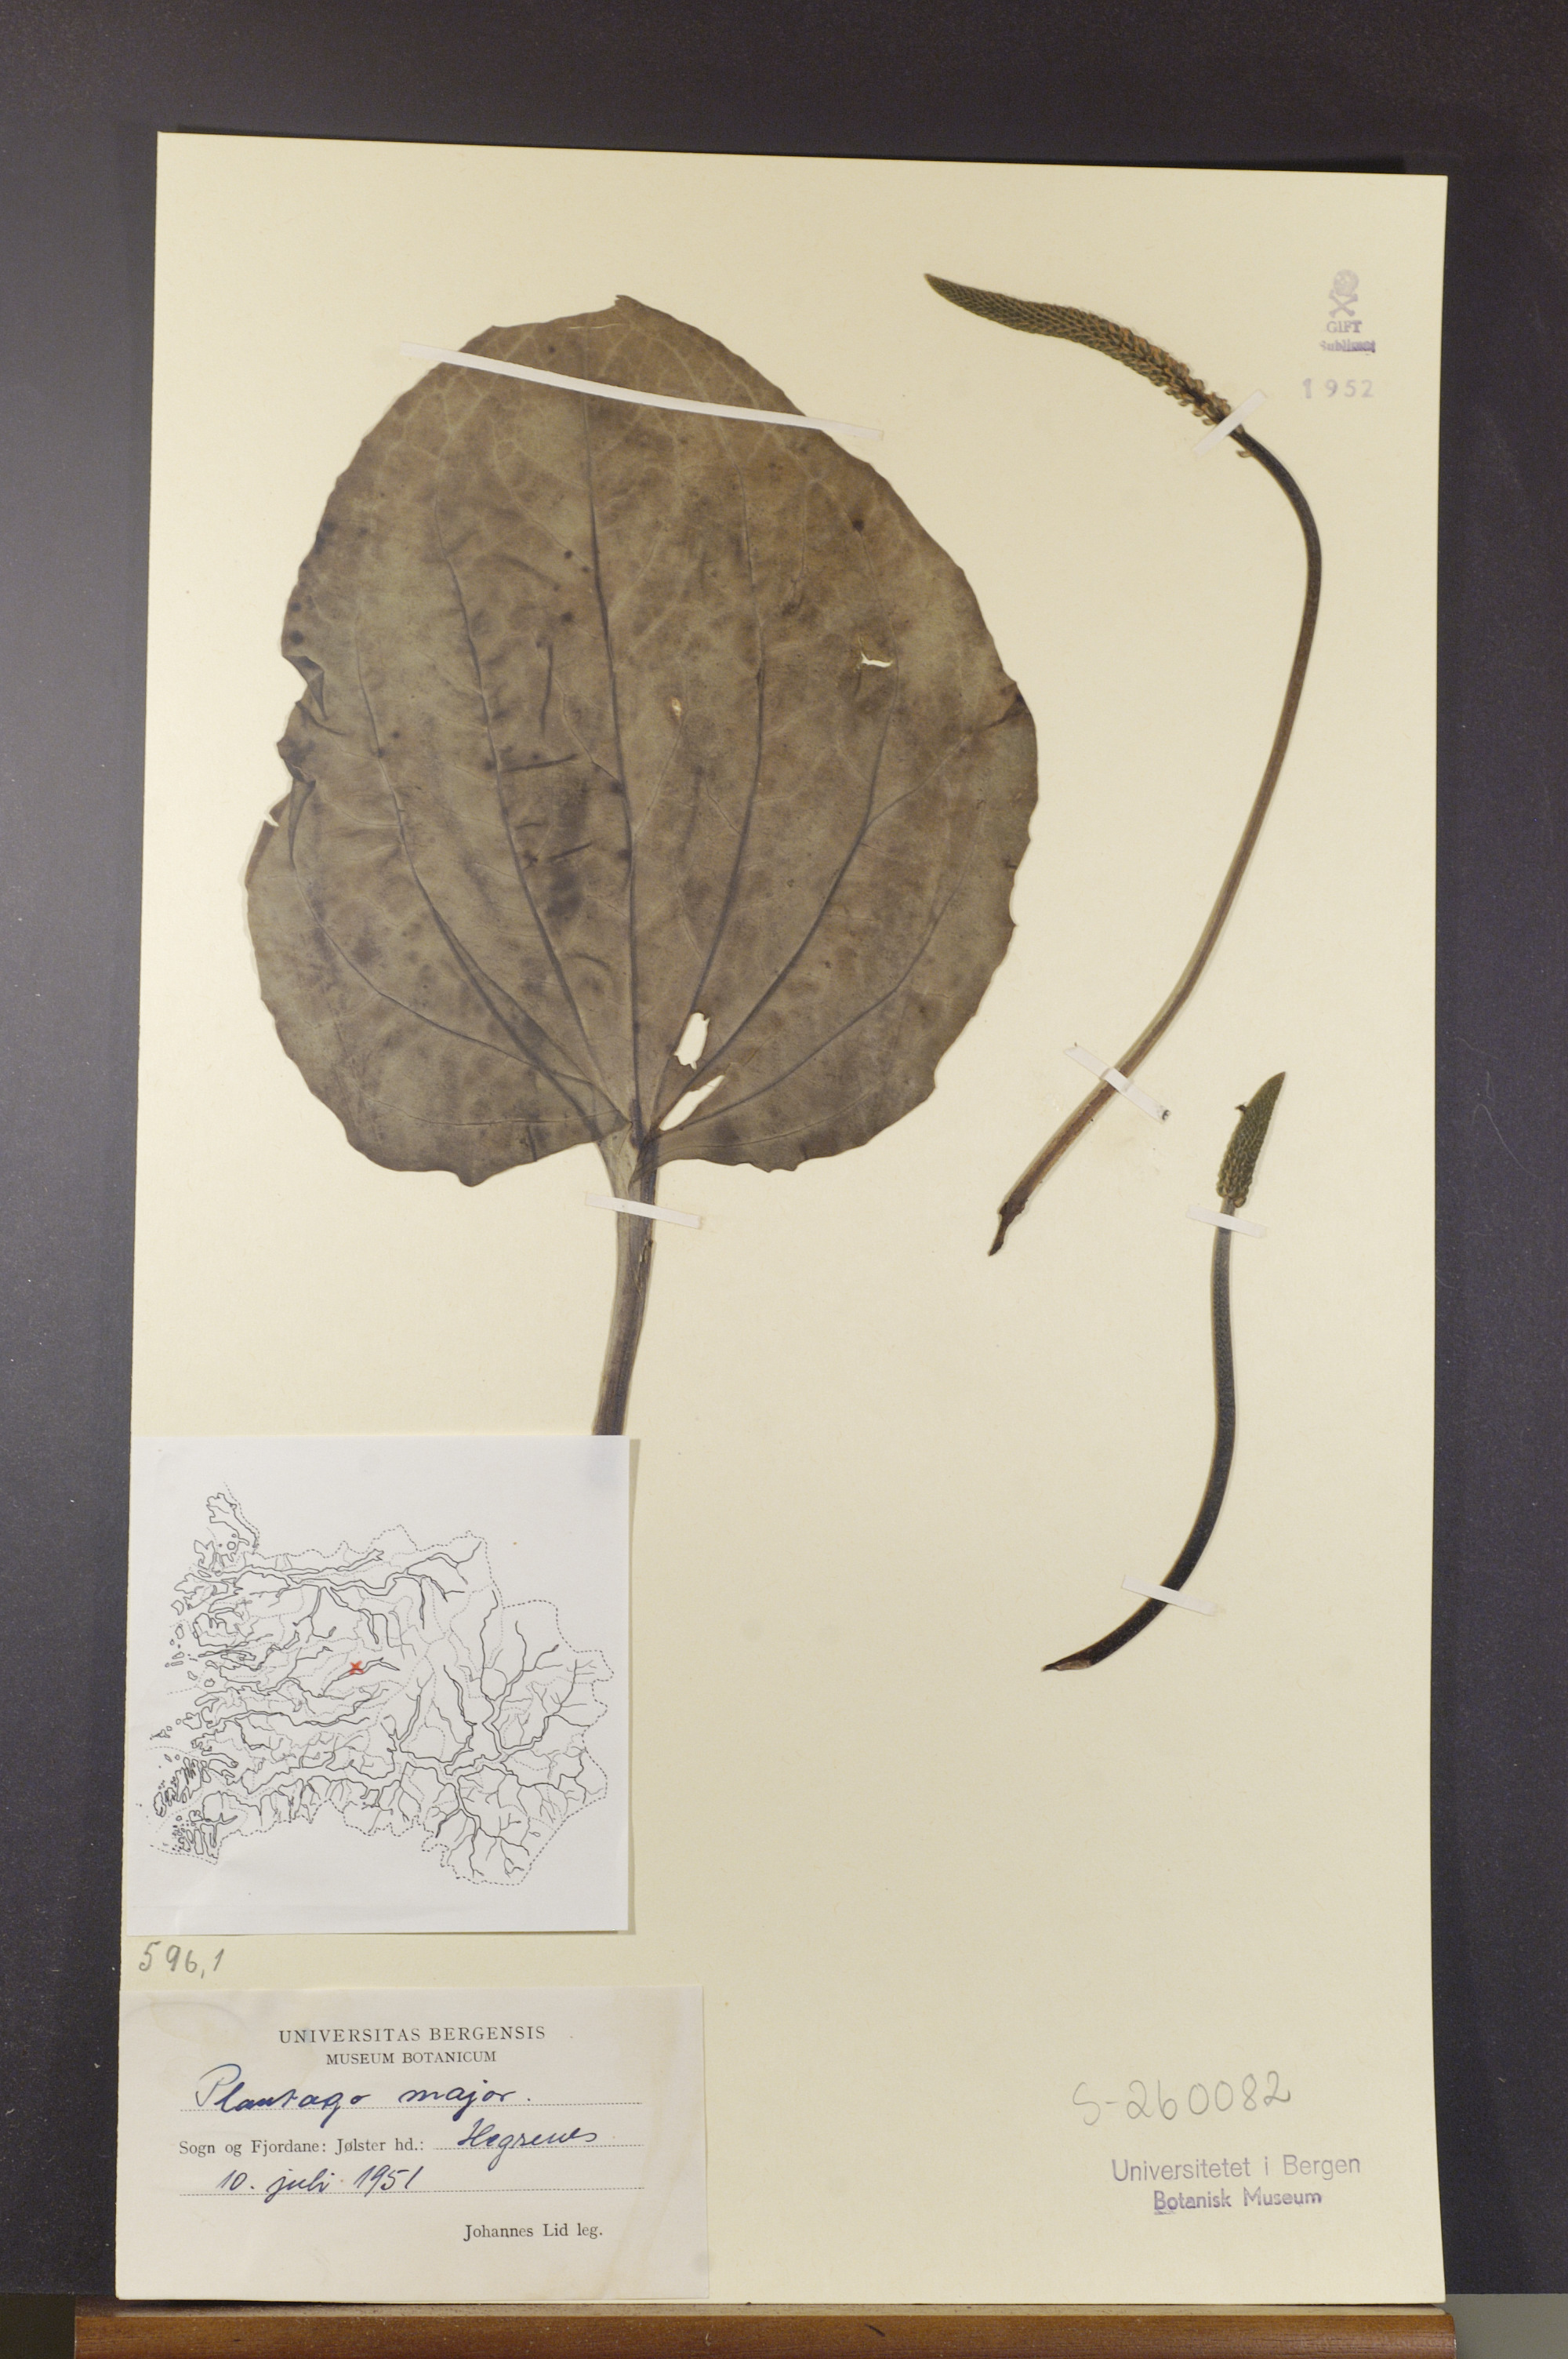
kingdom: Plantae
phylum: Tracheophyta
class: Magnoliopsida
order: Lamiales
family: Plantaginaceae
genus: Plantago
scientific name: Plantago major
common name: Common plantain
